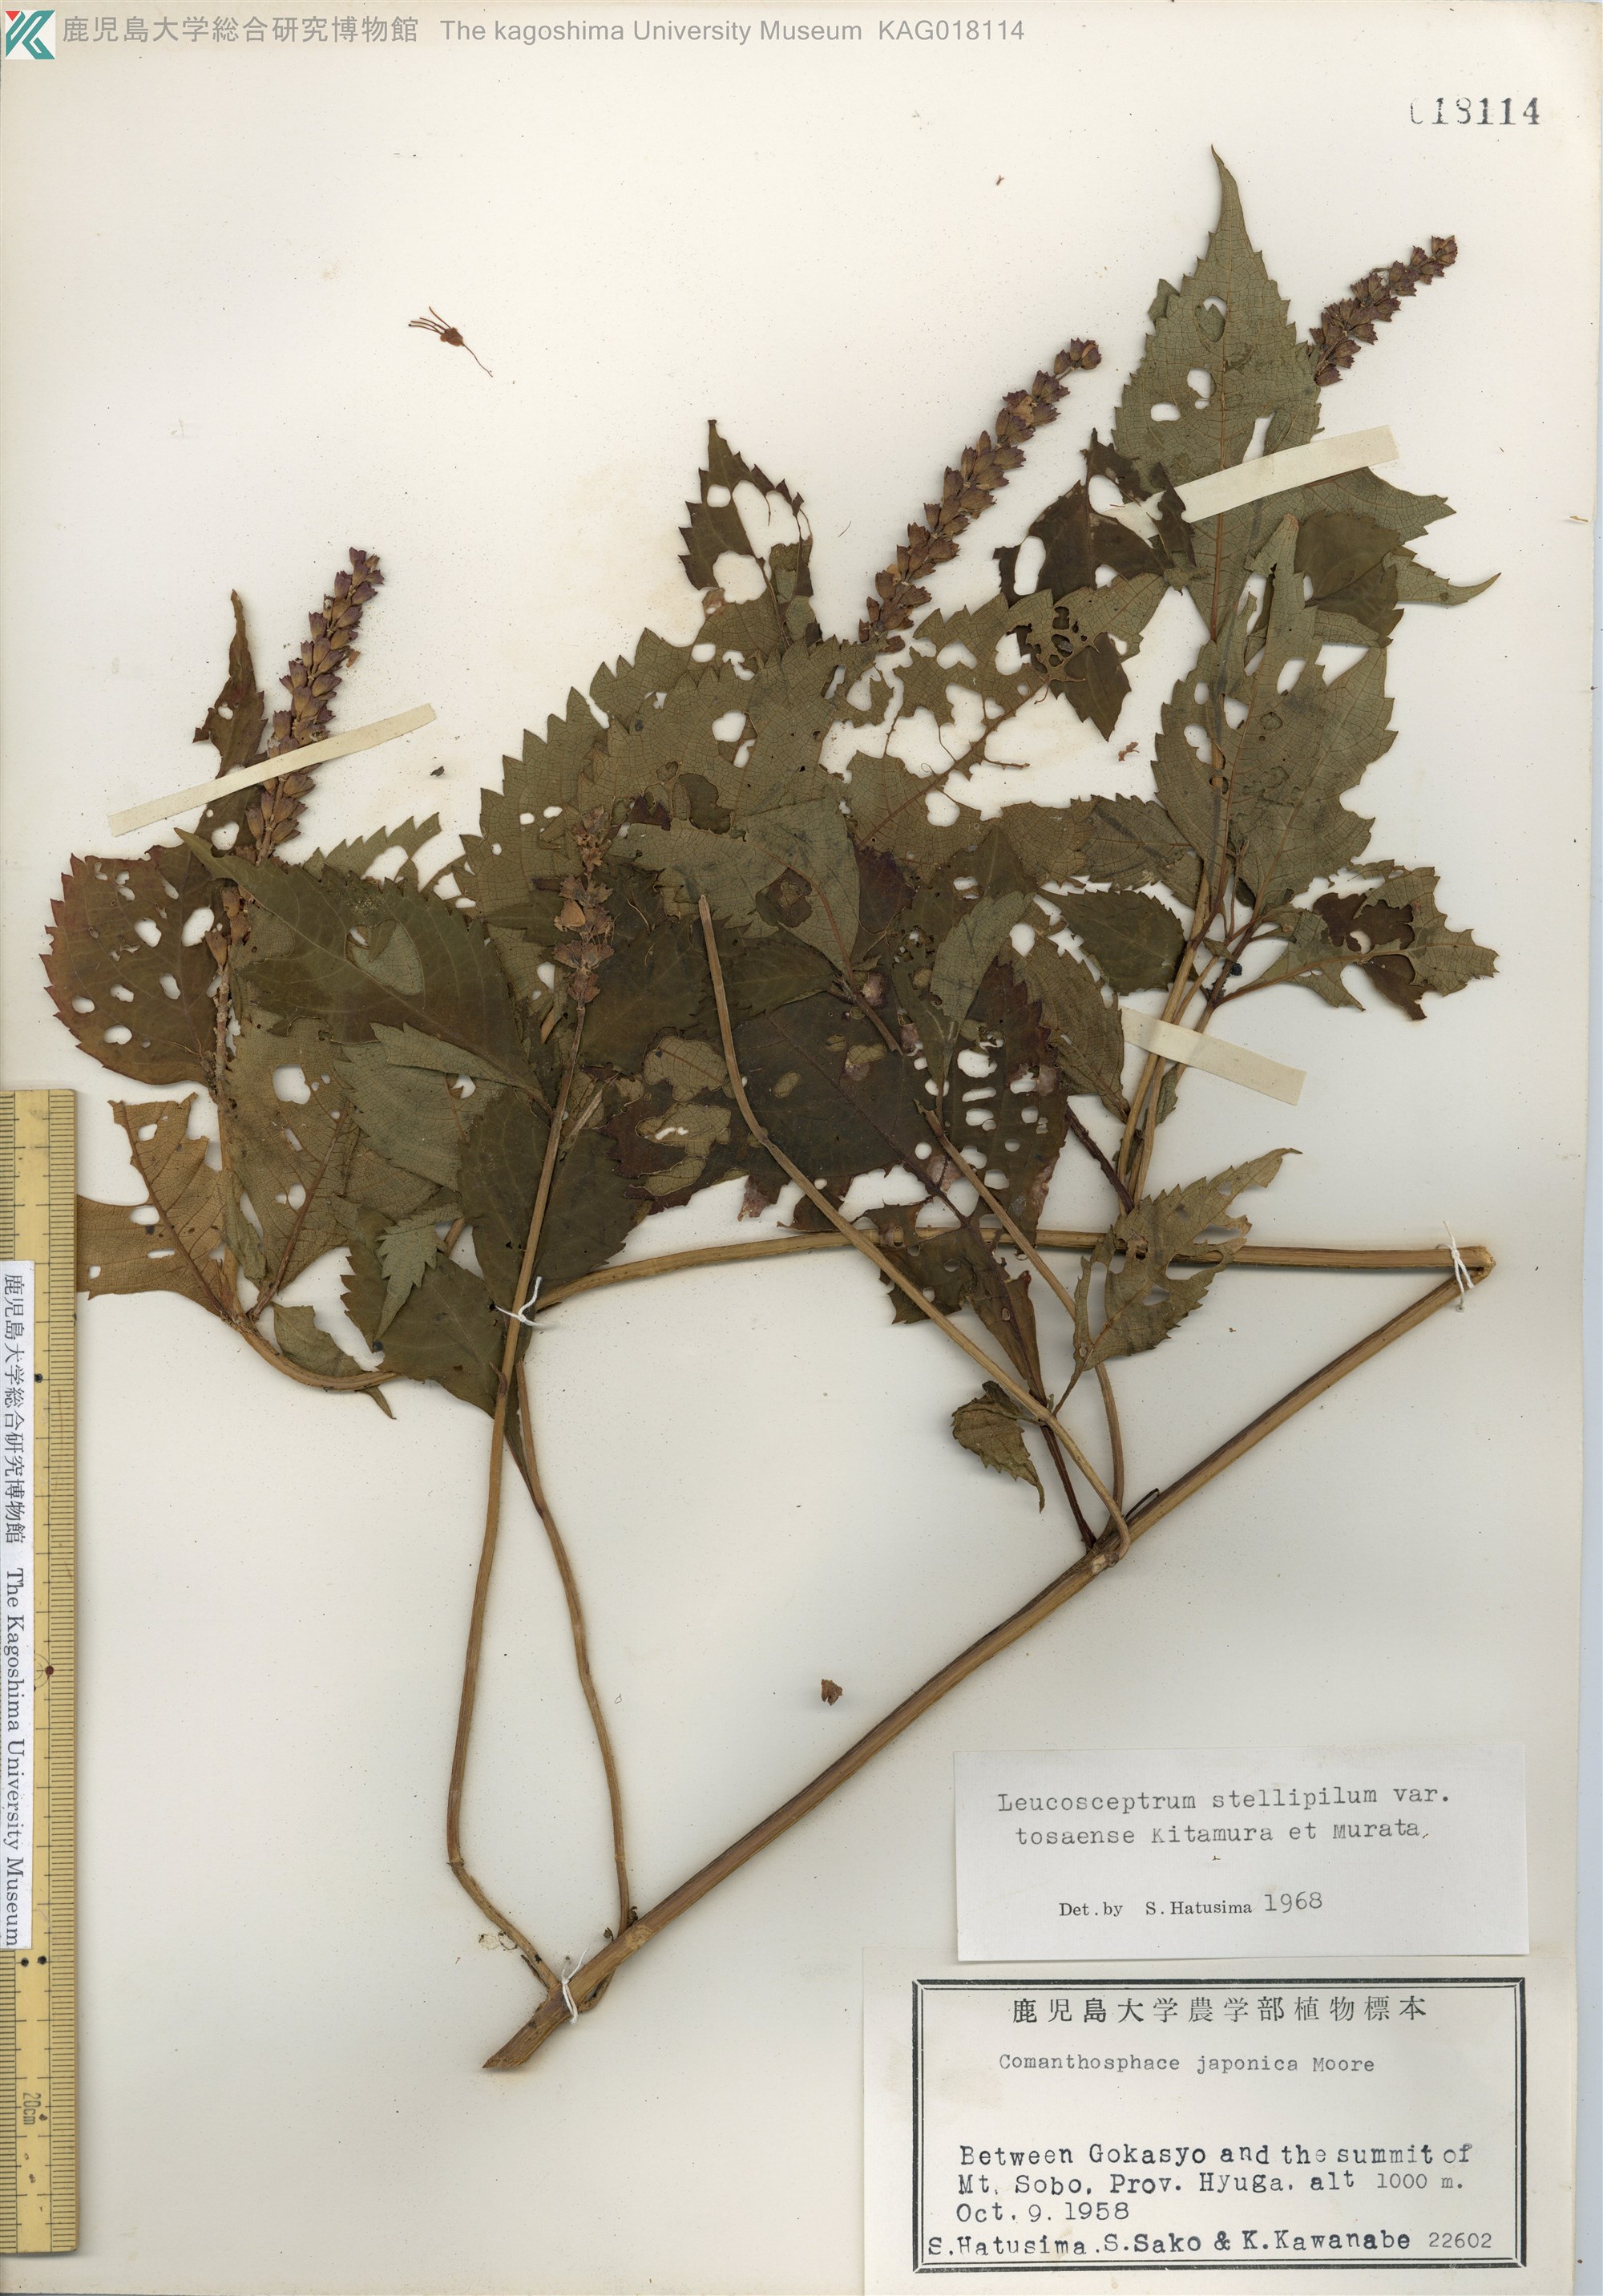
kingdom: Plantae
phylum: Tracheophyta
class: Magnoliopsida
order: Lamiales
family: Lamiaceae
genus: Comanthosphace
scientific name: Comanthosphace japonica
